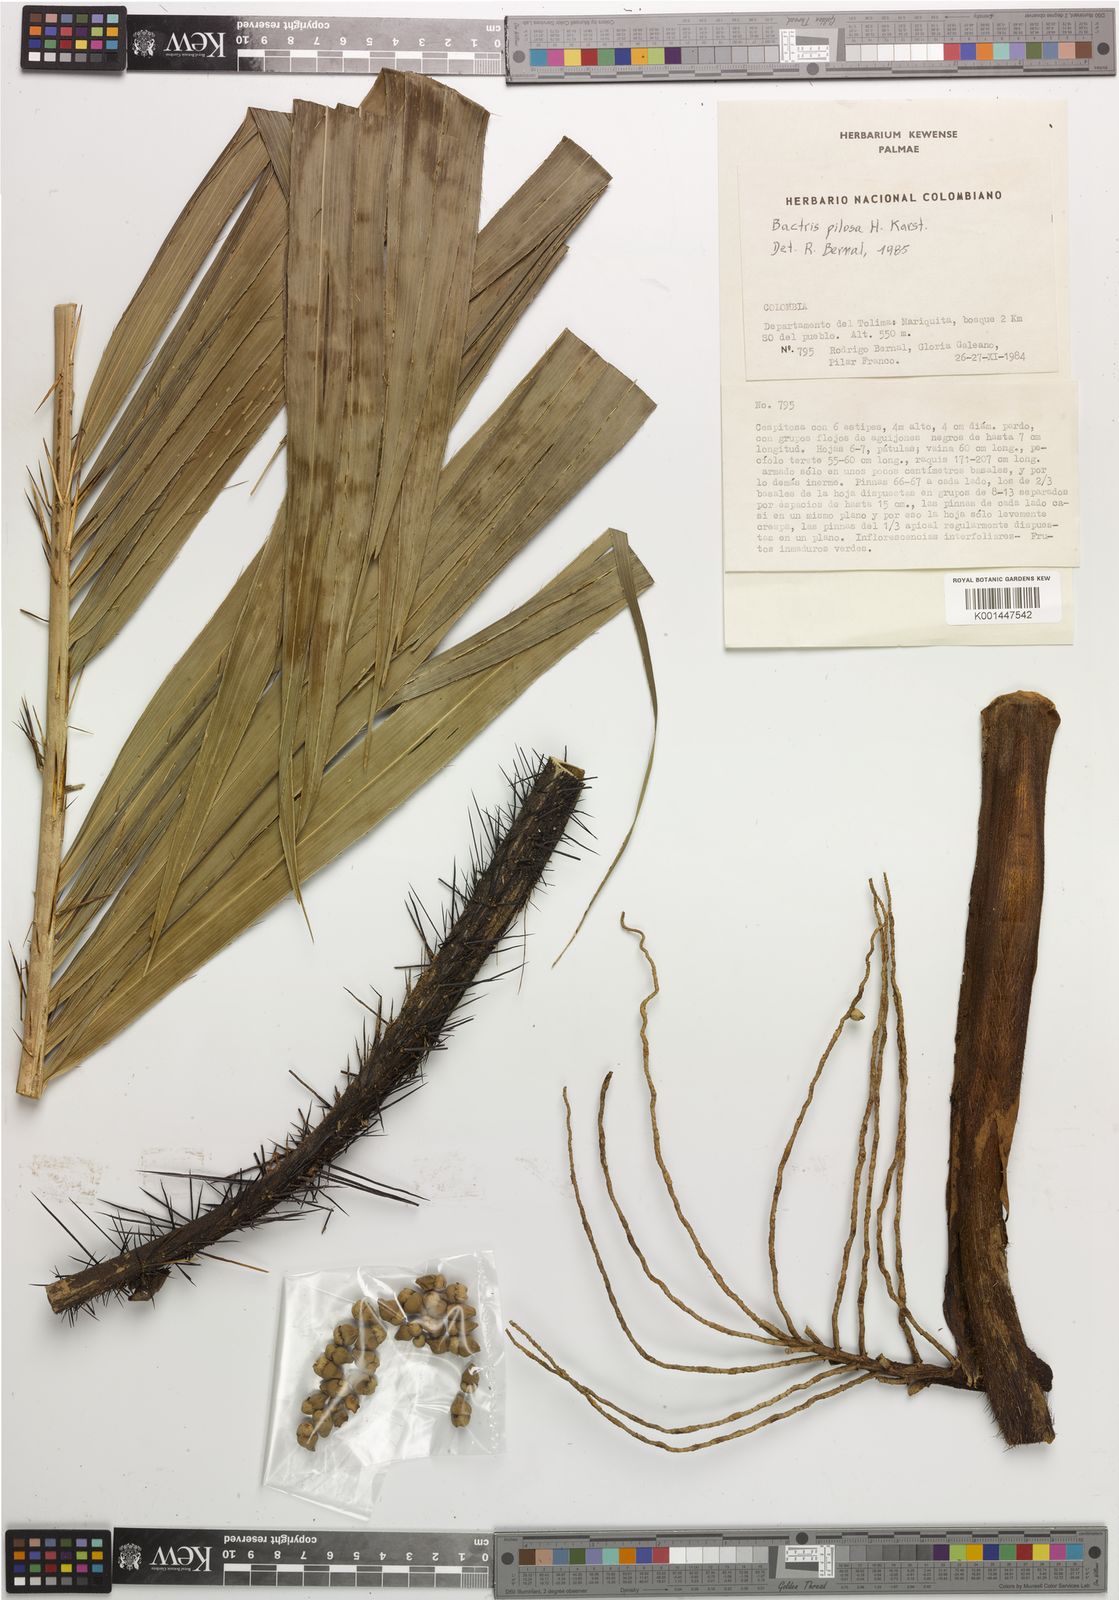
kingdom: Plantae
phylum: Tracheophyta
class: Liliopsida
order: Arecales
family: Arecaceae
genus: Bactris
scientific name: Bactris pilosa
